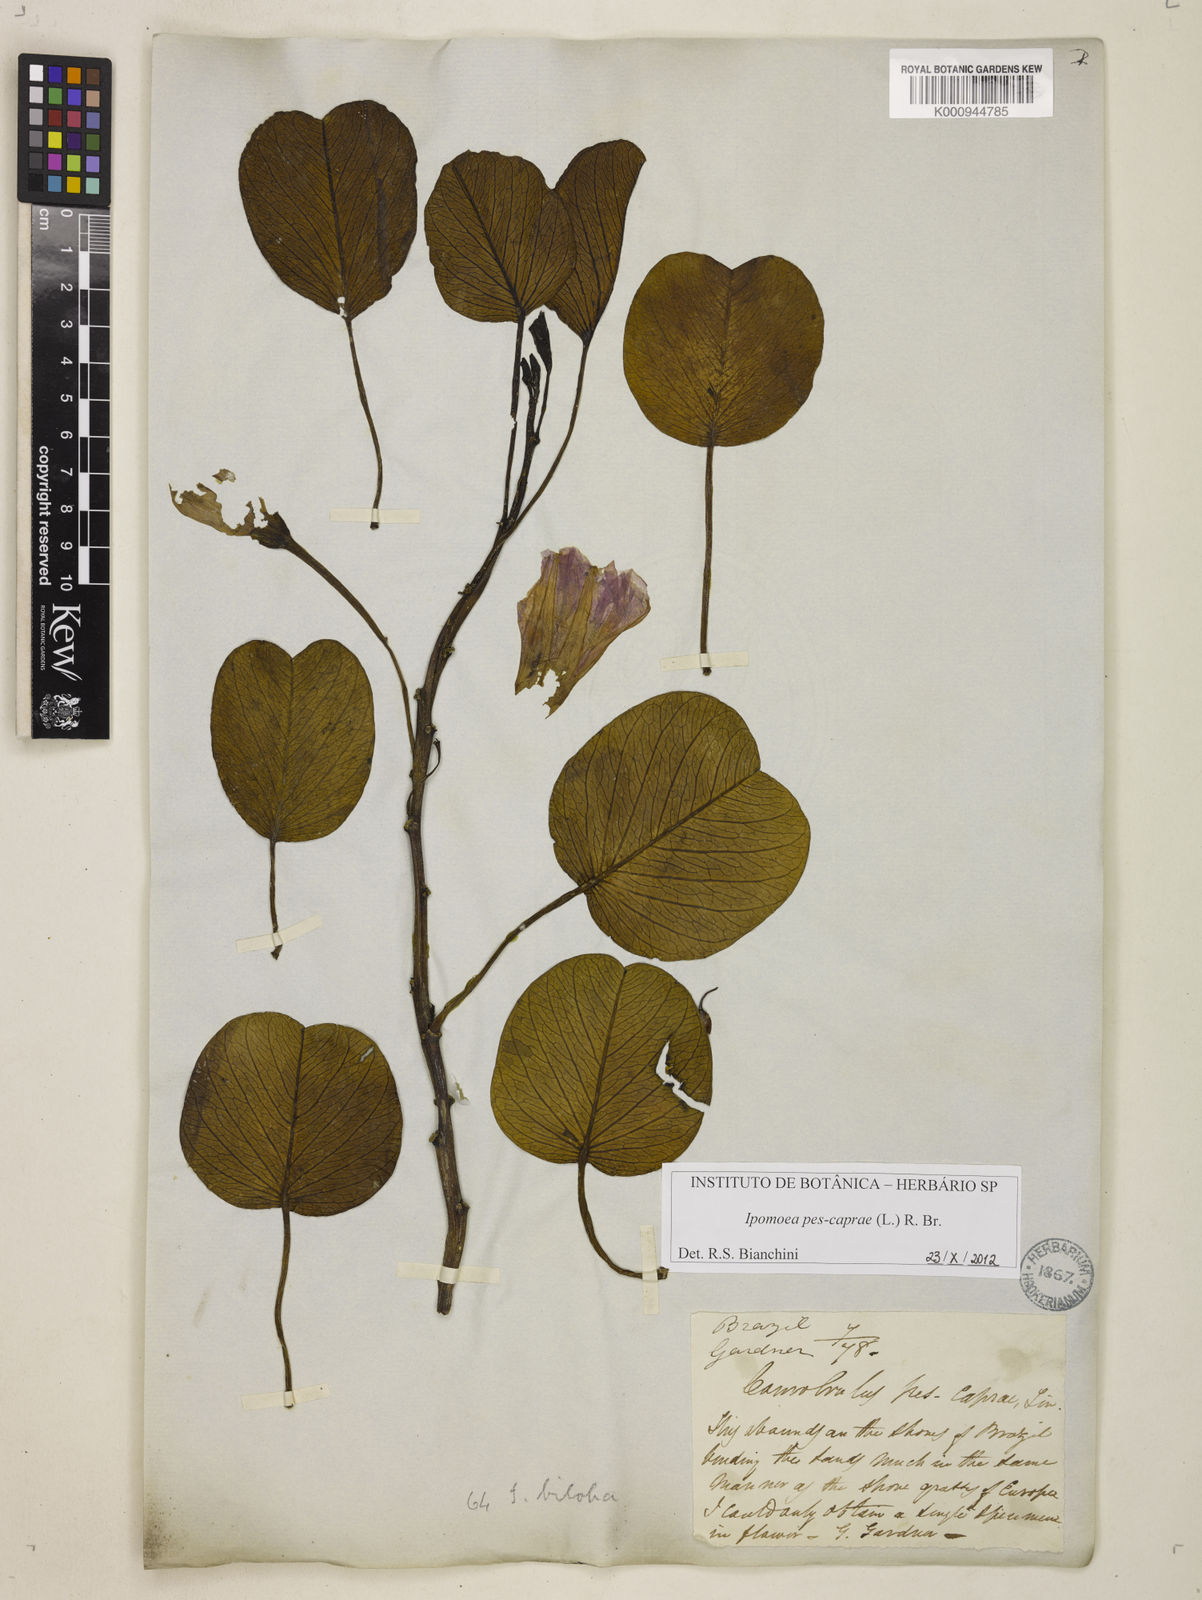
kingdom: Plantae
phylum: Tracheophyta
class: Magnoliopsida
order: Solanales
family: Convolvulaceae
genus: Ipomoea
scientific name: Ipomoea pes-caprae
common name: Beach morning glory
